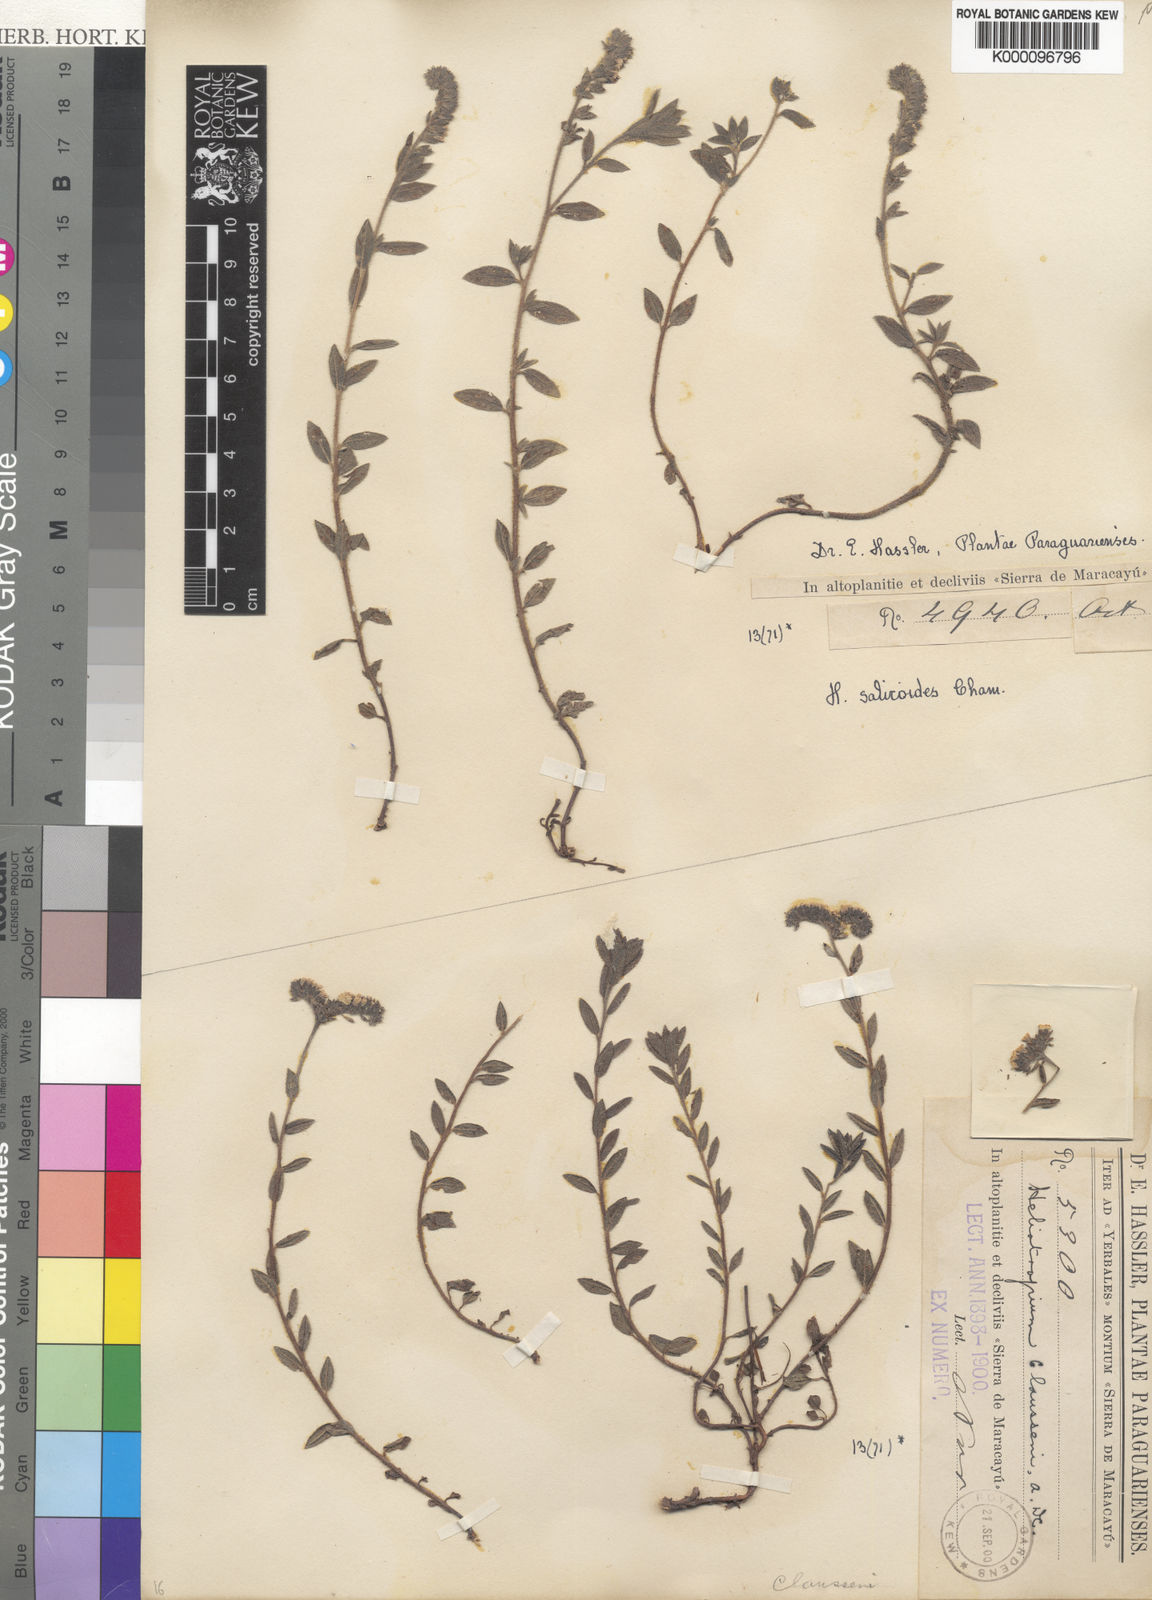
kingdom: Plantae
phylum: Tracheophyta
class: Magnoliopsida
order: Boraginales
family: Heliotropiaceae
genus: Heliotropium
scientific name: Heliotropium
